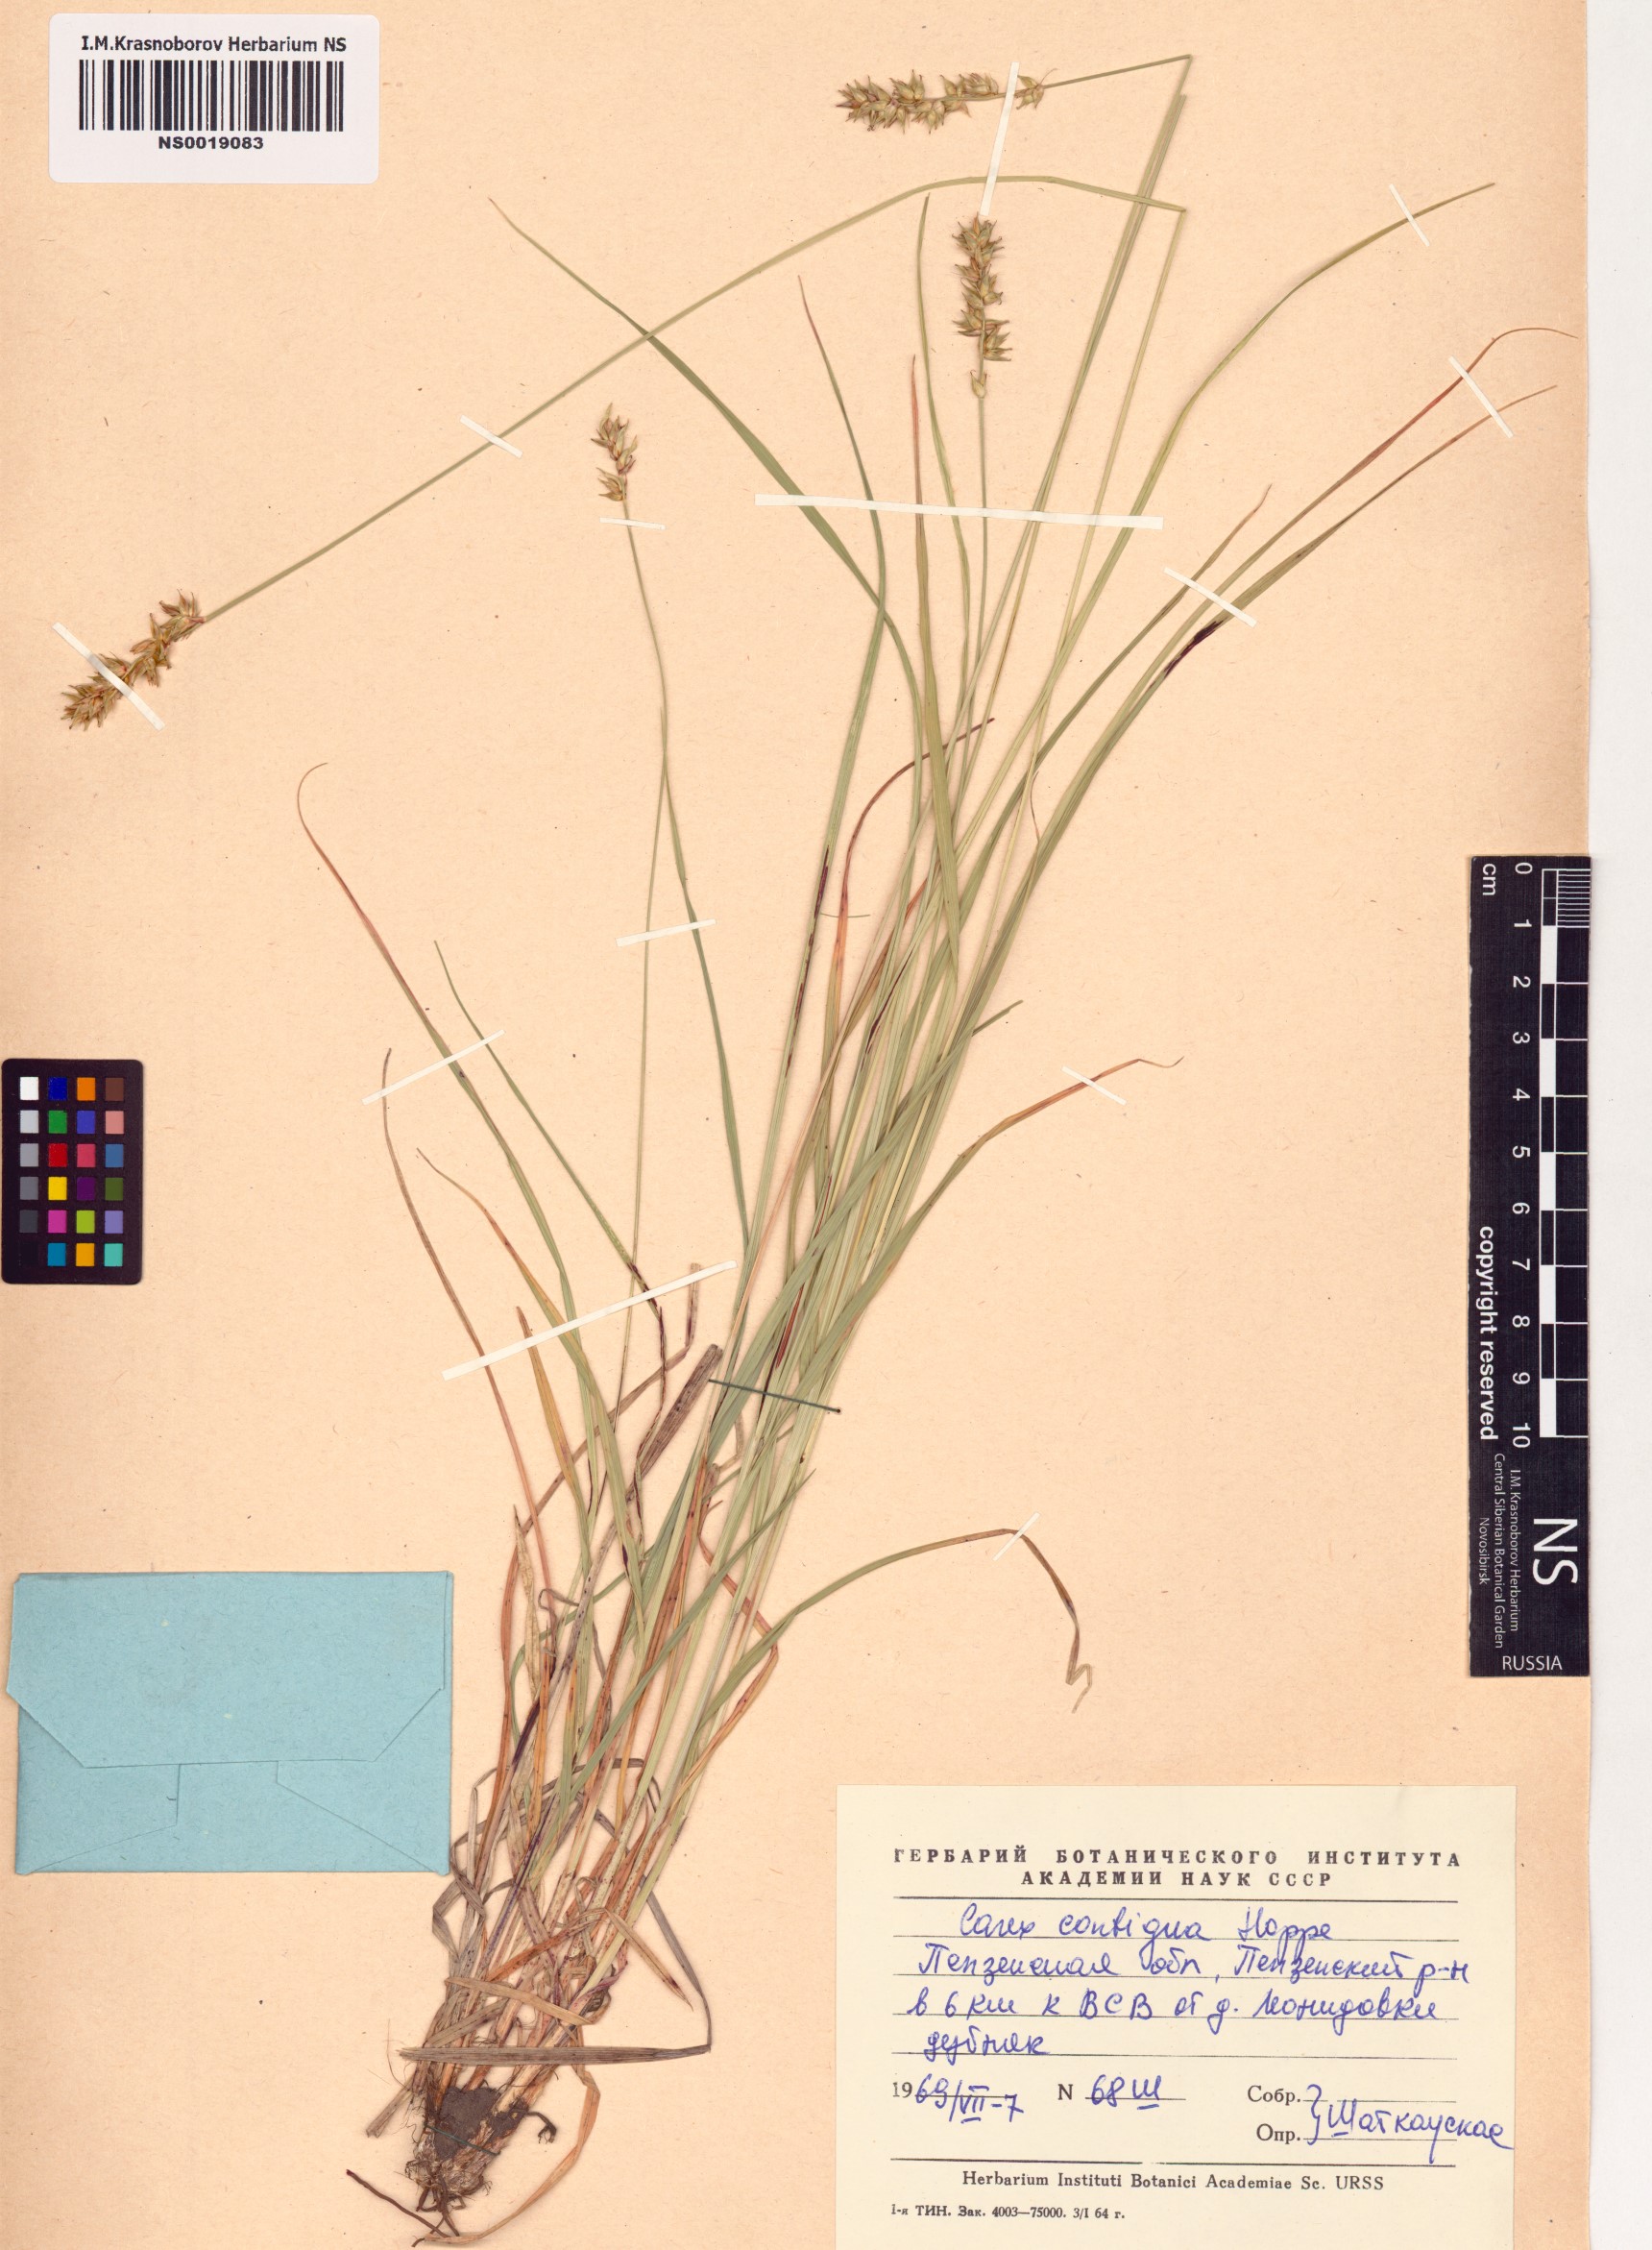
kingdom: Plantae
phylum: Tracheophyta
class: Liliopsida
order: Poales
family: Cyperaceae
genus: Carex
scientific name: Carex spicata
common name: Spiked sedge
